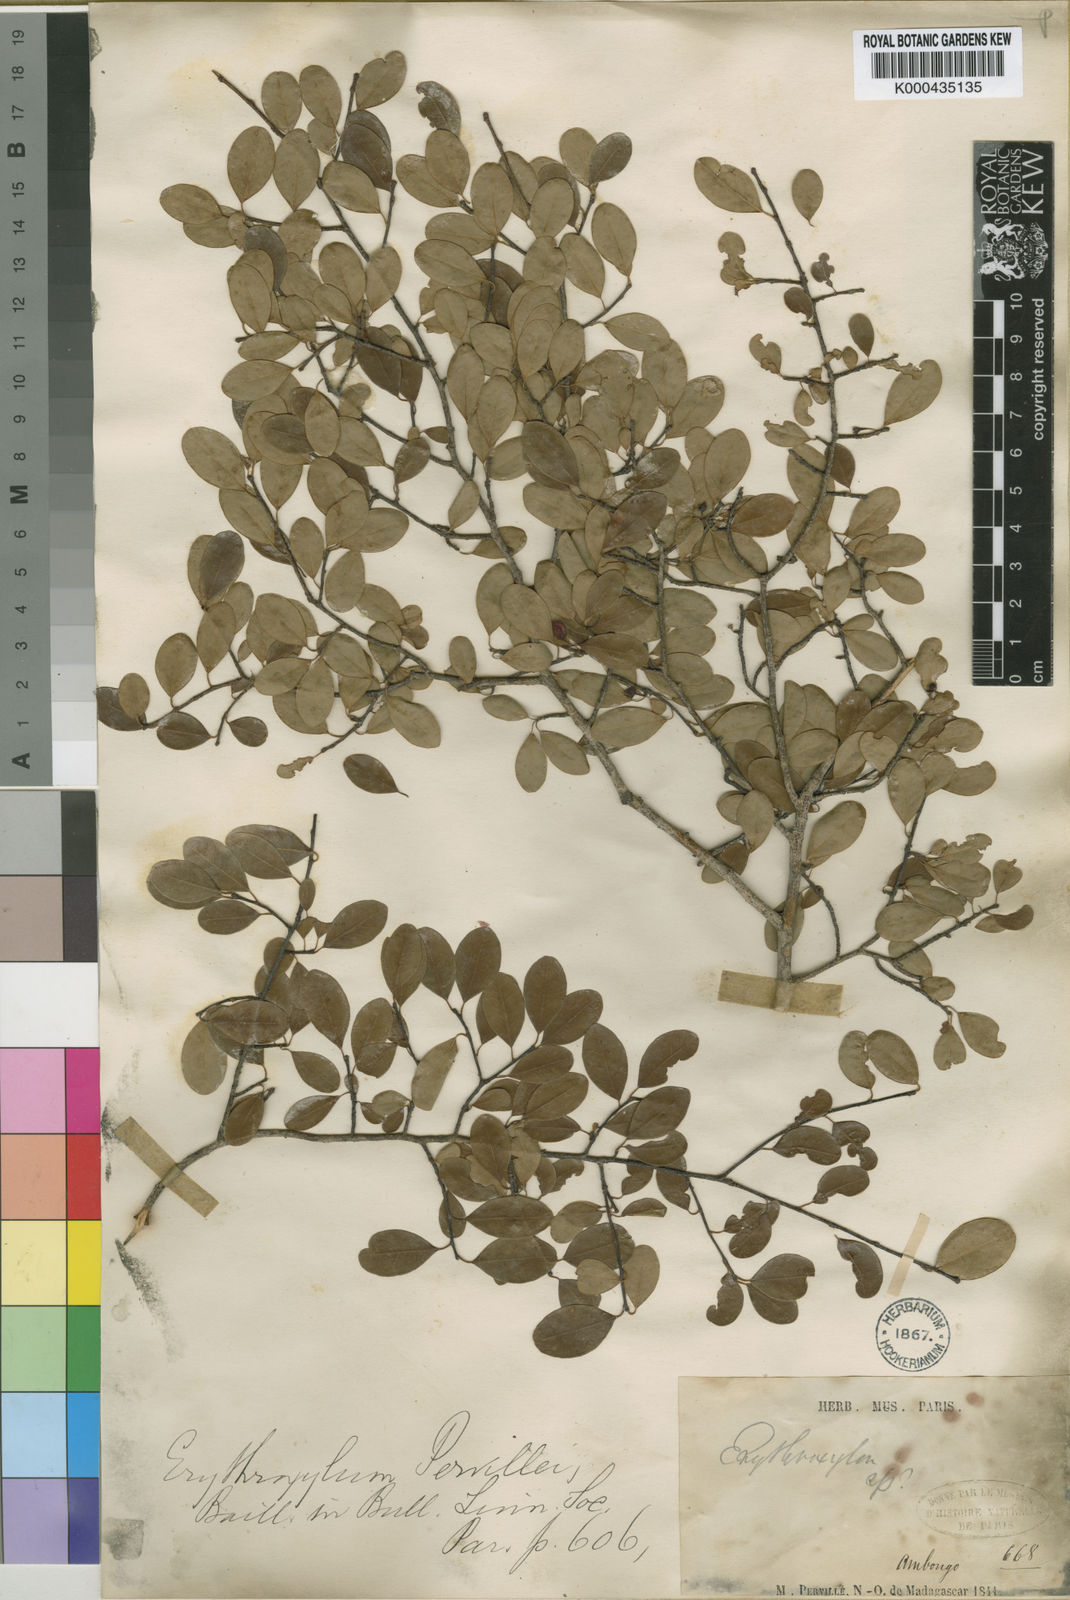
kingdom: Plantae
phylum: Tracheophyta
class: Magnoliopsida
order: Malpighiales
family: Erythroxylaceae
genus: Erythroxylum
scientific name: Erythroxylum pervillei
